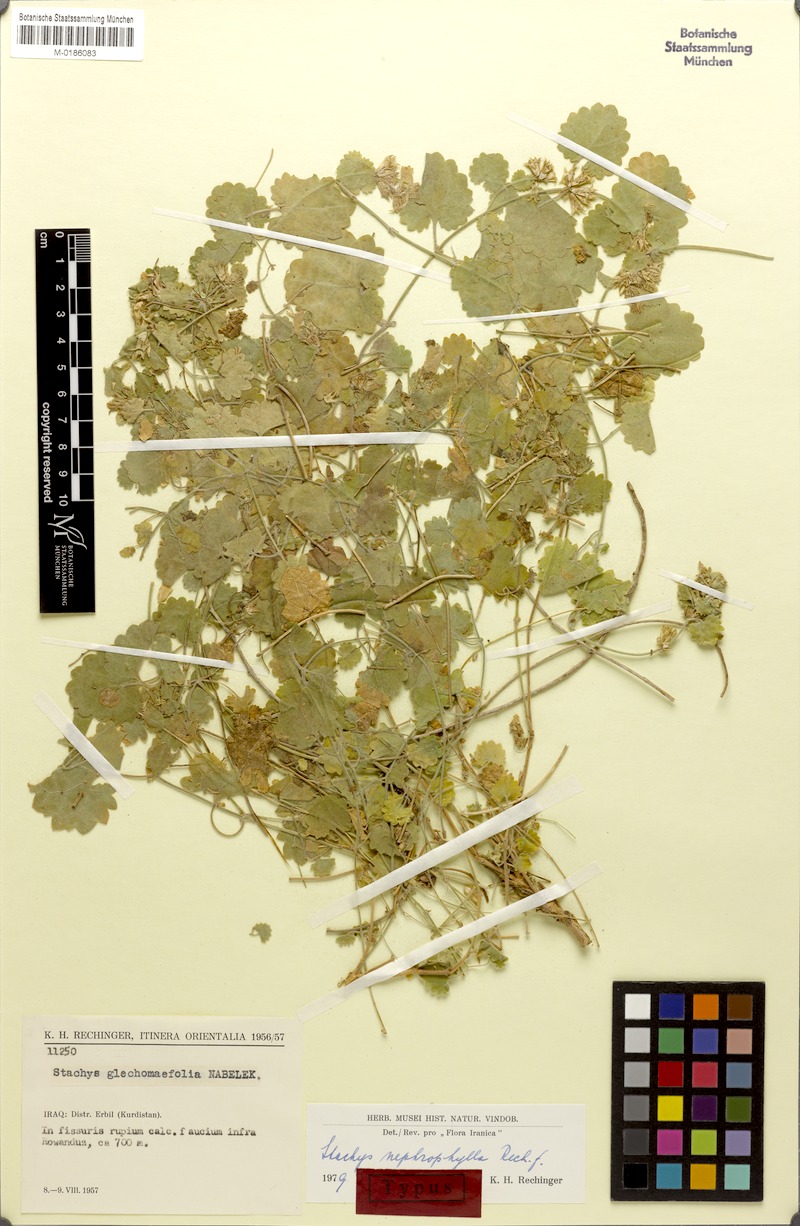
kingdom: Plantae
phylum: Tracheophyta
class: Magnoliopsida
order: Lamiales
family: Lamiaceae
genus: Stachys
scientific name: Stachys nephrophylla
